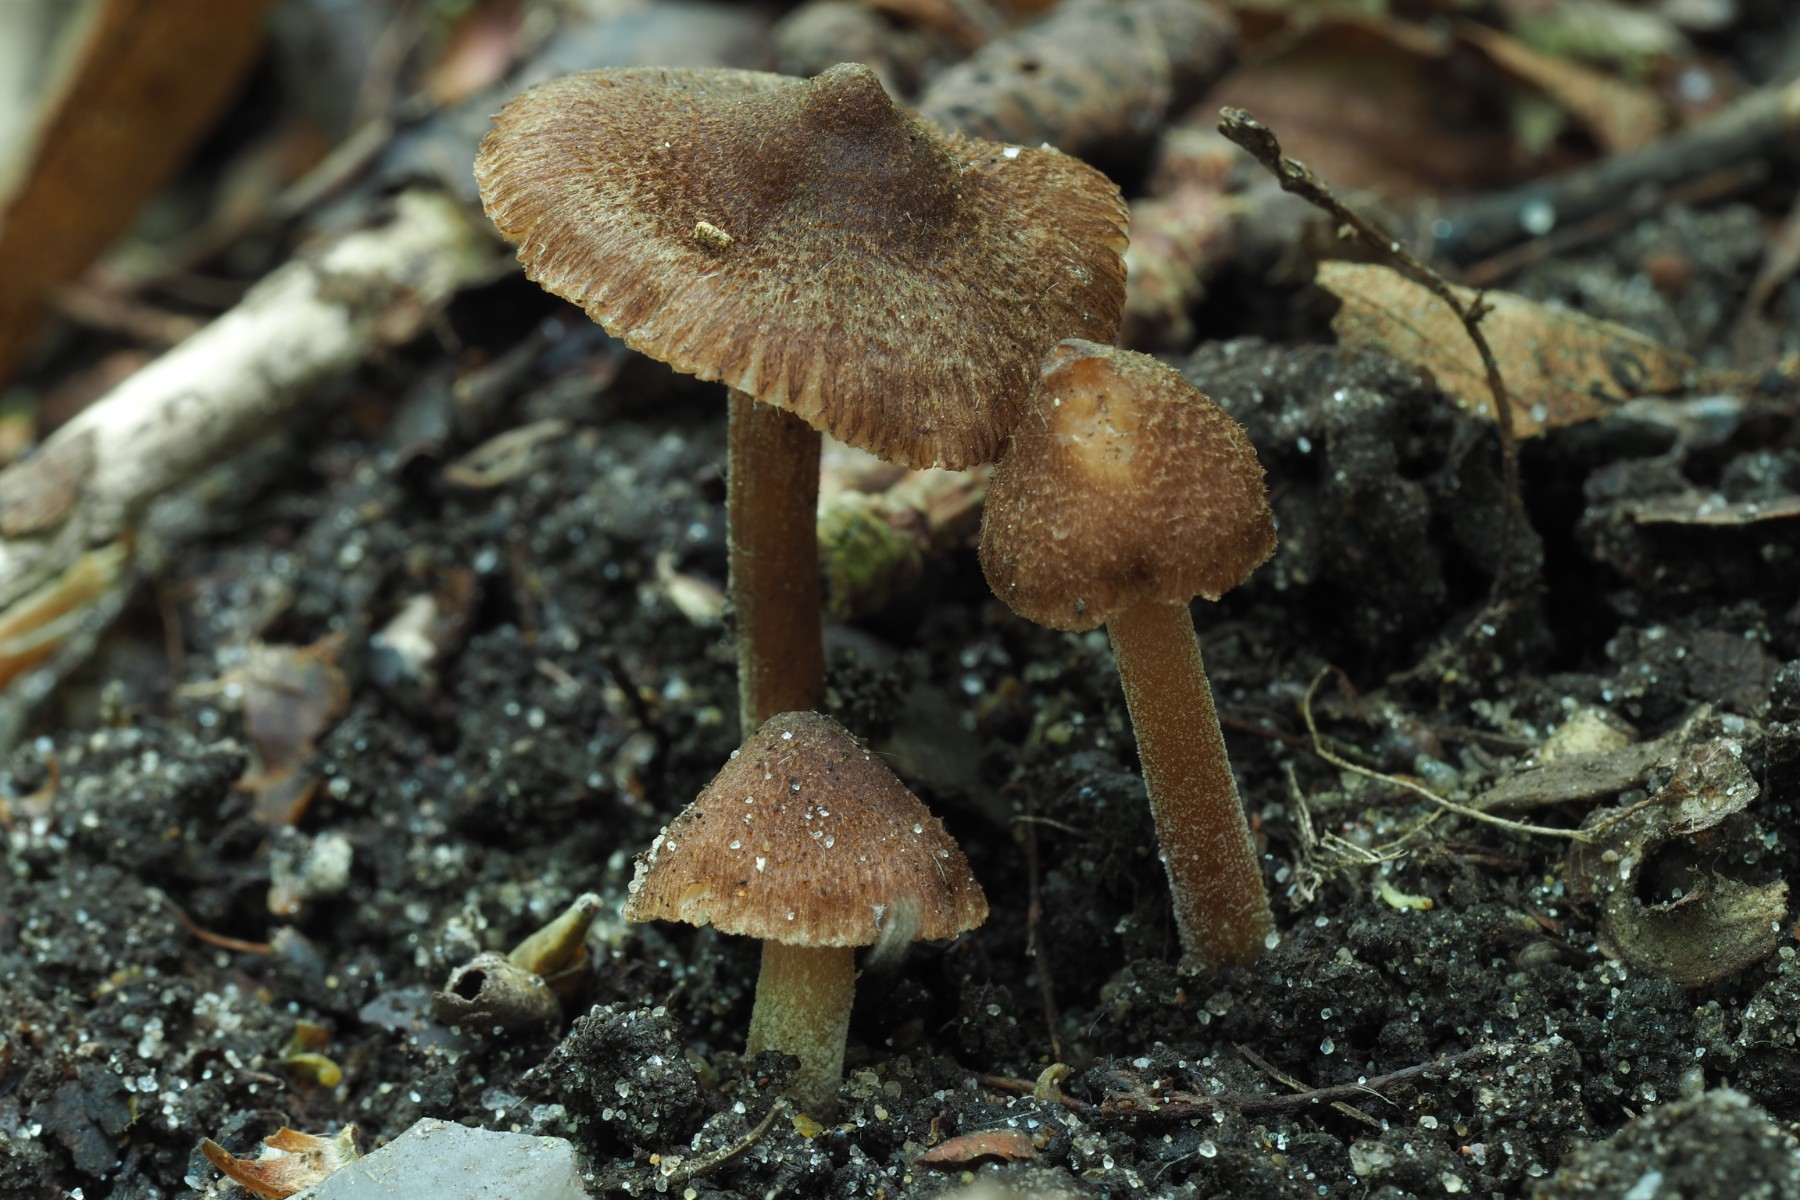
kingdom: Fungi
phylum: Basidiomycota
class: Agaricomycetes
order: Agaricales
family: Inocybaceae
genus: Inocybe
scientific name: Inocybe calospora
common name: pigsporet trævlhat
